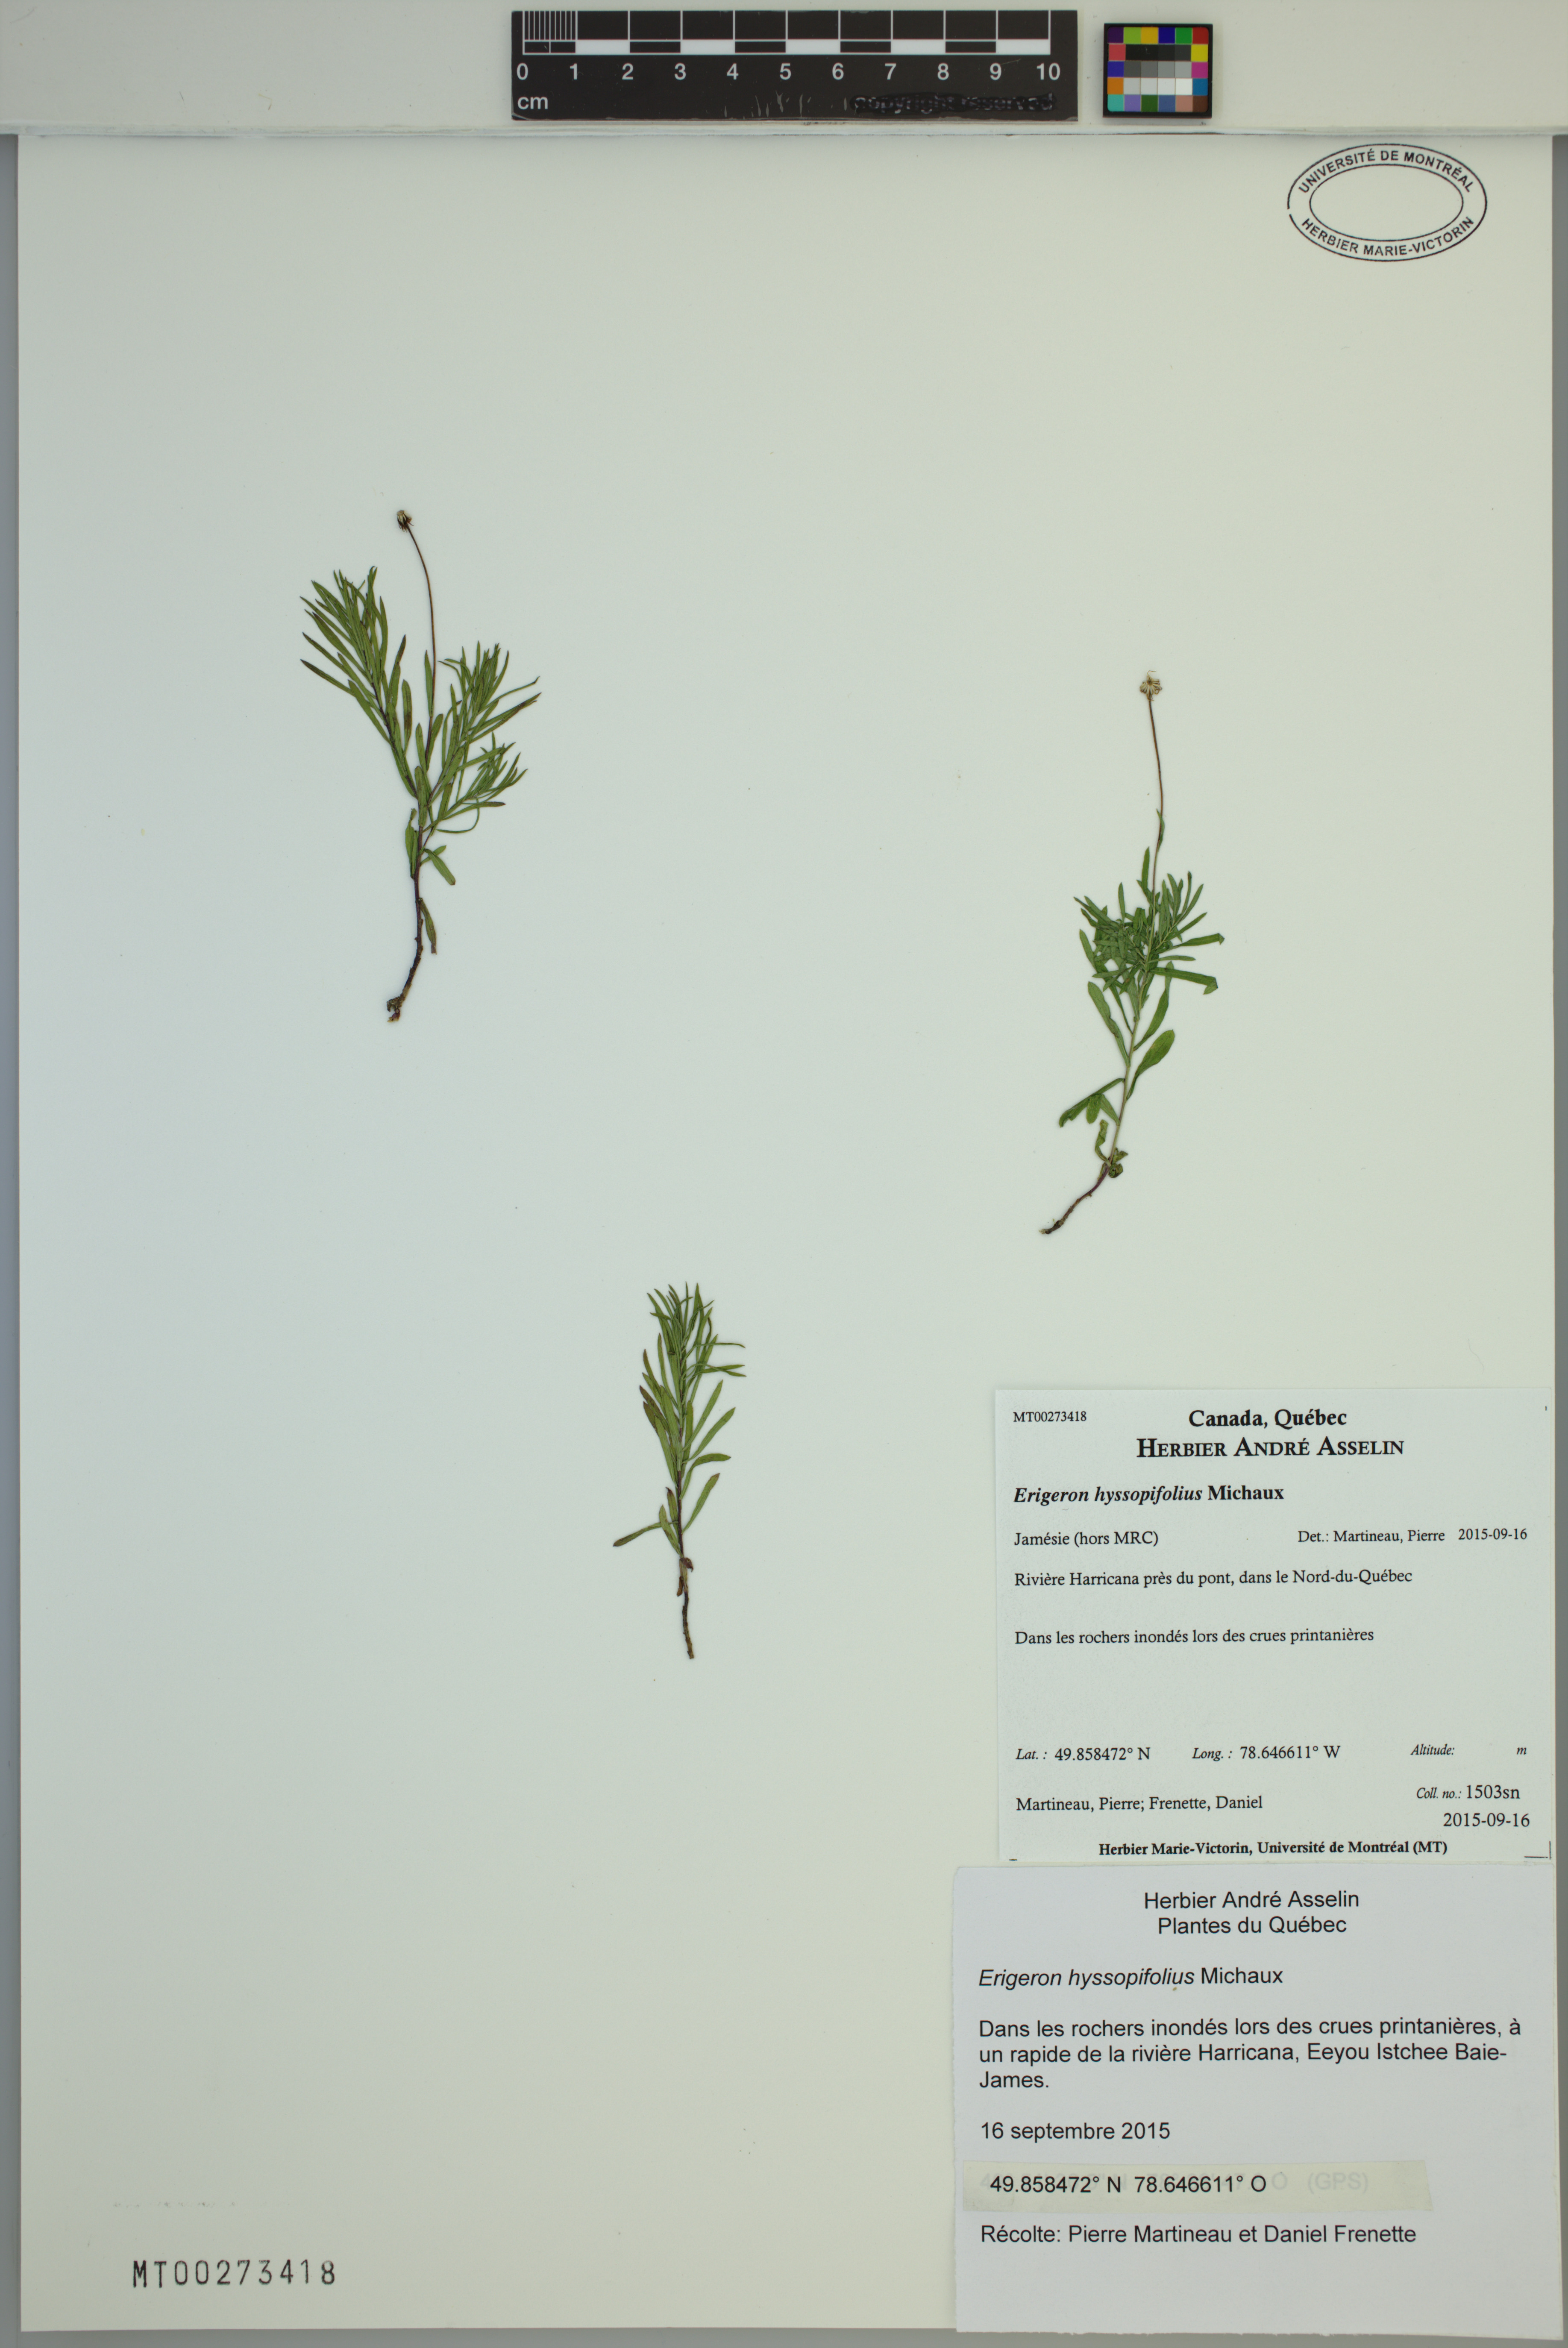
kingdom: Plantae
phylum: Tracheophyta
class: Magnoliopsida
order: Asterales
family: Asteraceae
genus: Erigeron
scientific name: Erigeron hyssopifolius
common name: Daisy fleabane
